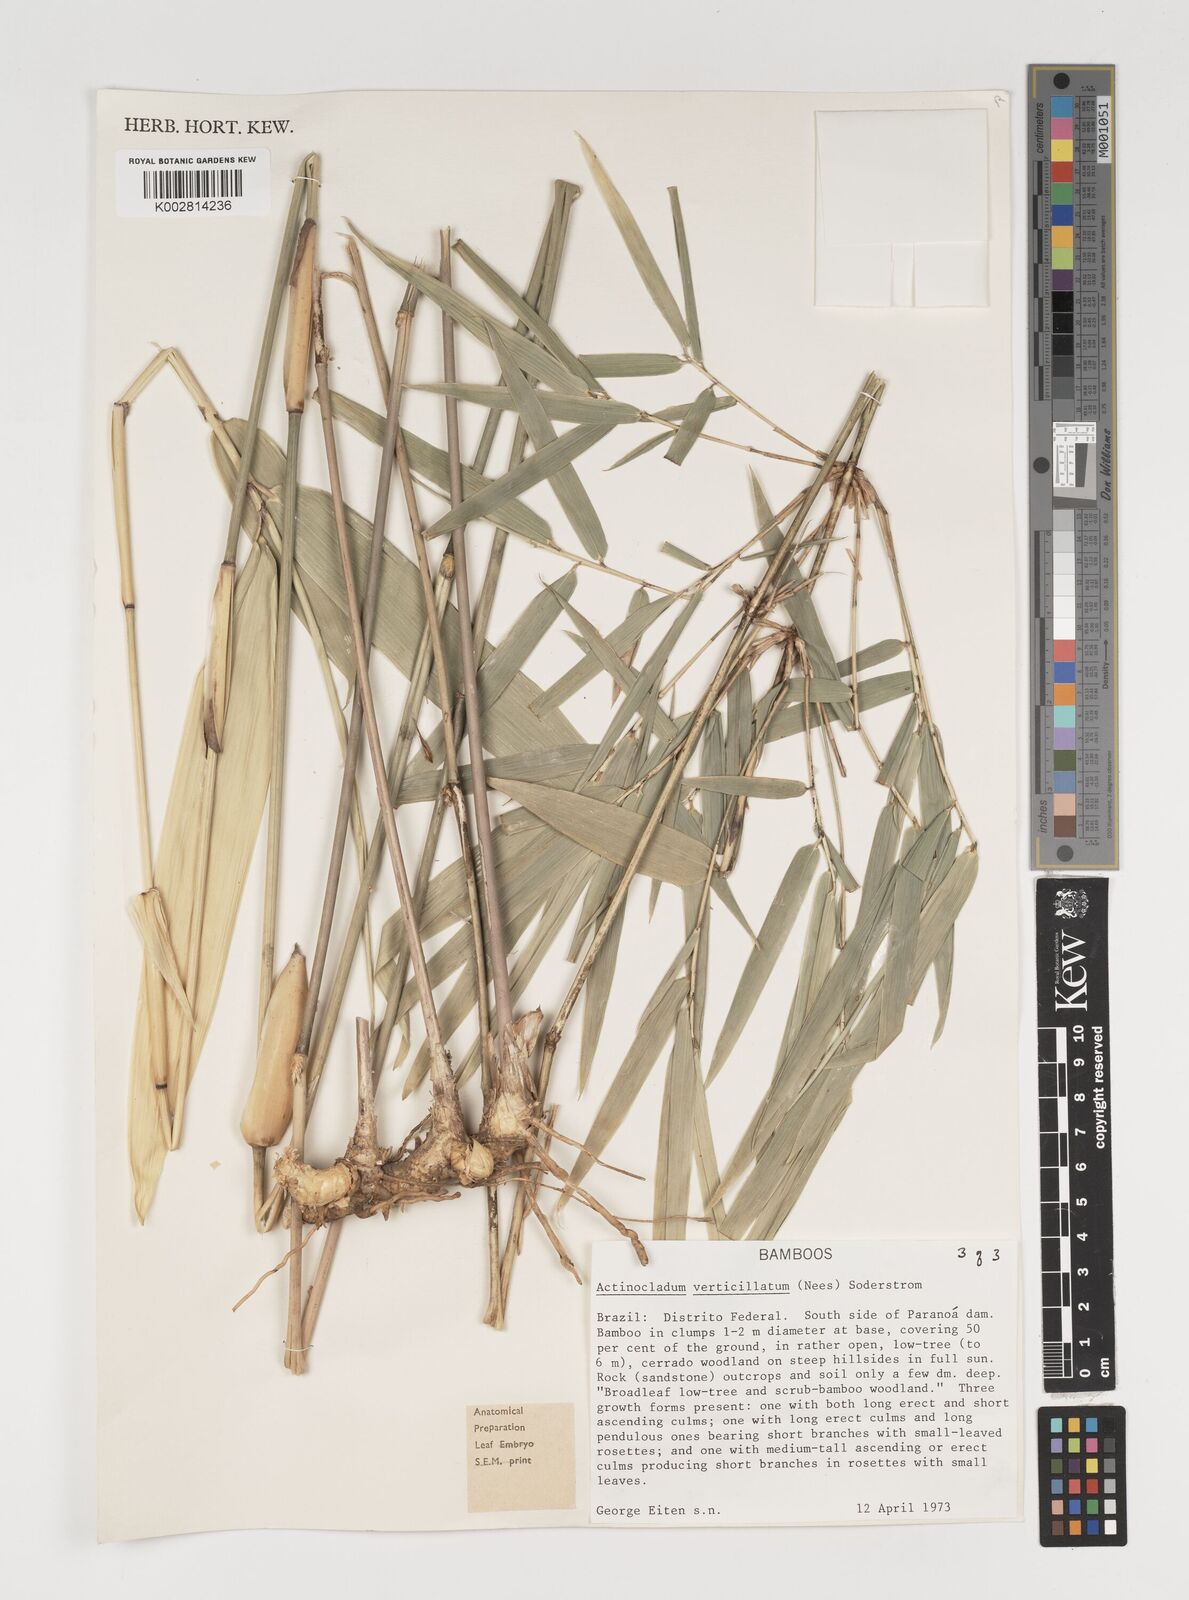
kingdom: Plantae
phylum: Tracheophyta
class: Liliopsida
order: Poales
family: Poaceae
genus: Actinocladum
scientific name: Actinocladum verticillatum
